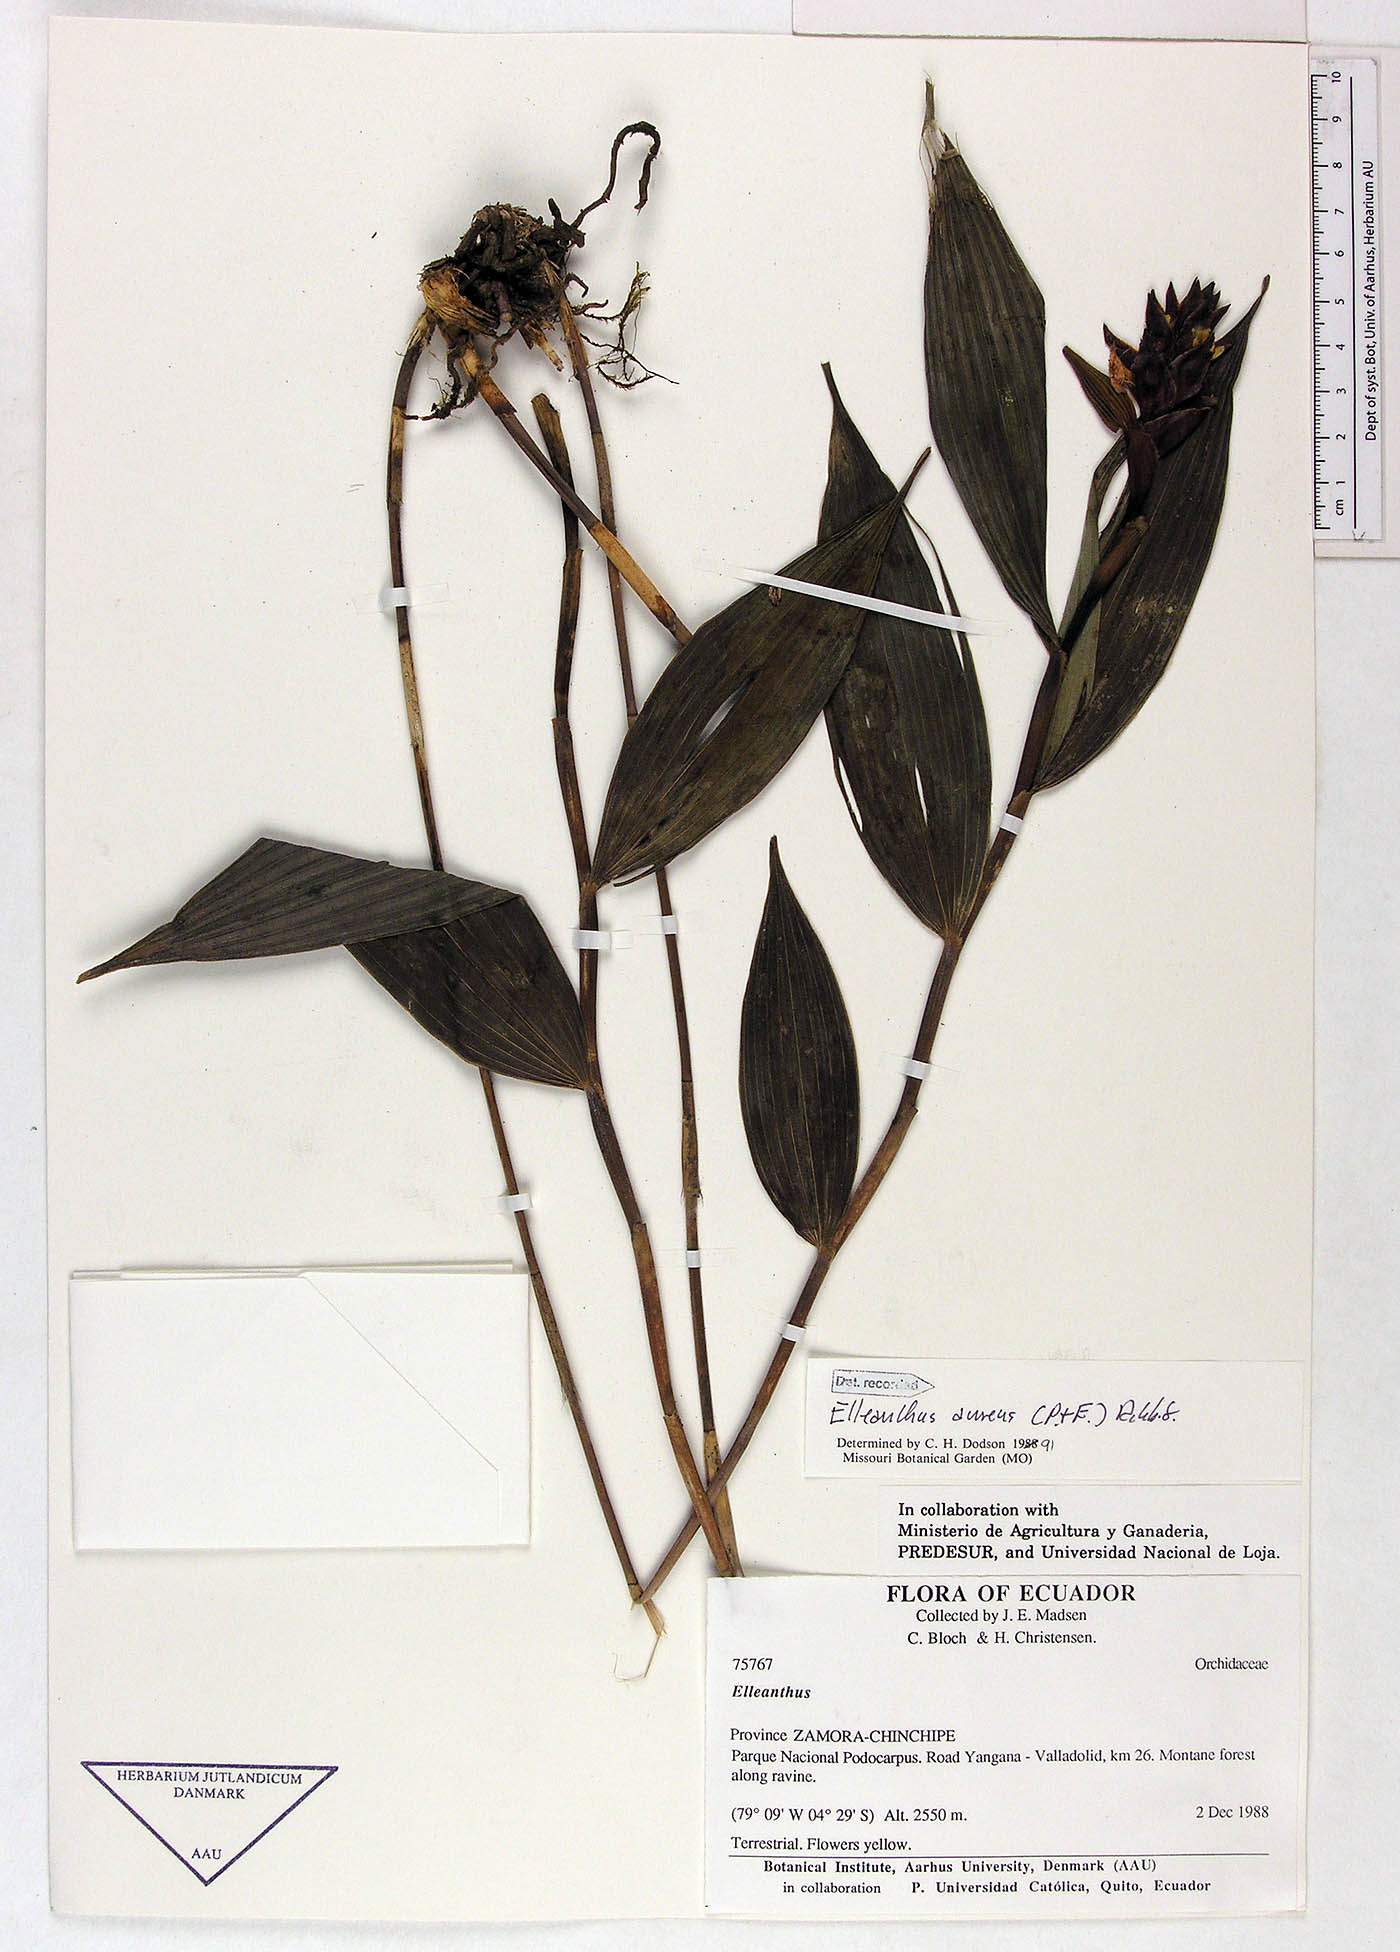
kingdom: Plantae
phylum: Tracheophyta
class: Liliopsida
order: Asparagales
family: Orchidaceae
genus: Elleanthus
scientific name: Elleanthus aureus
